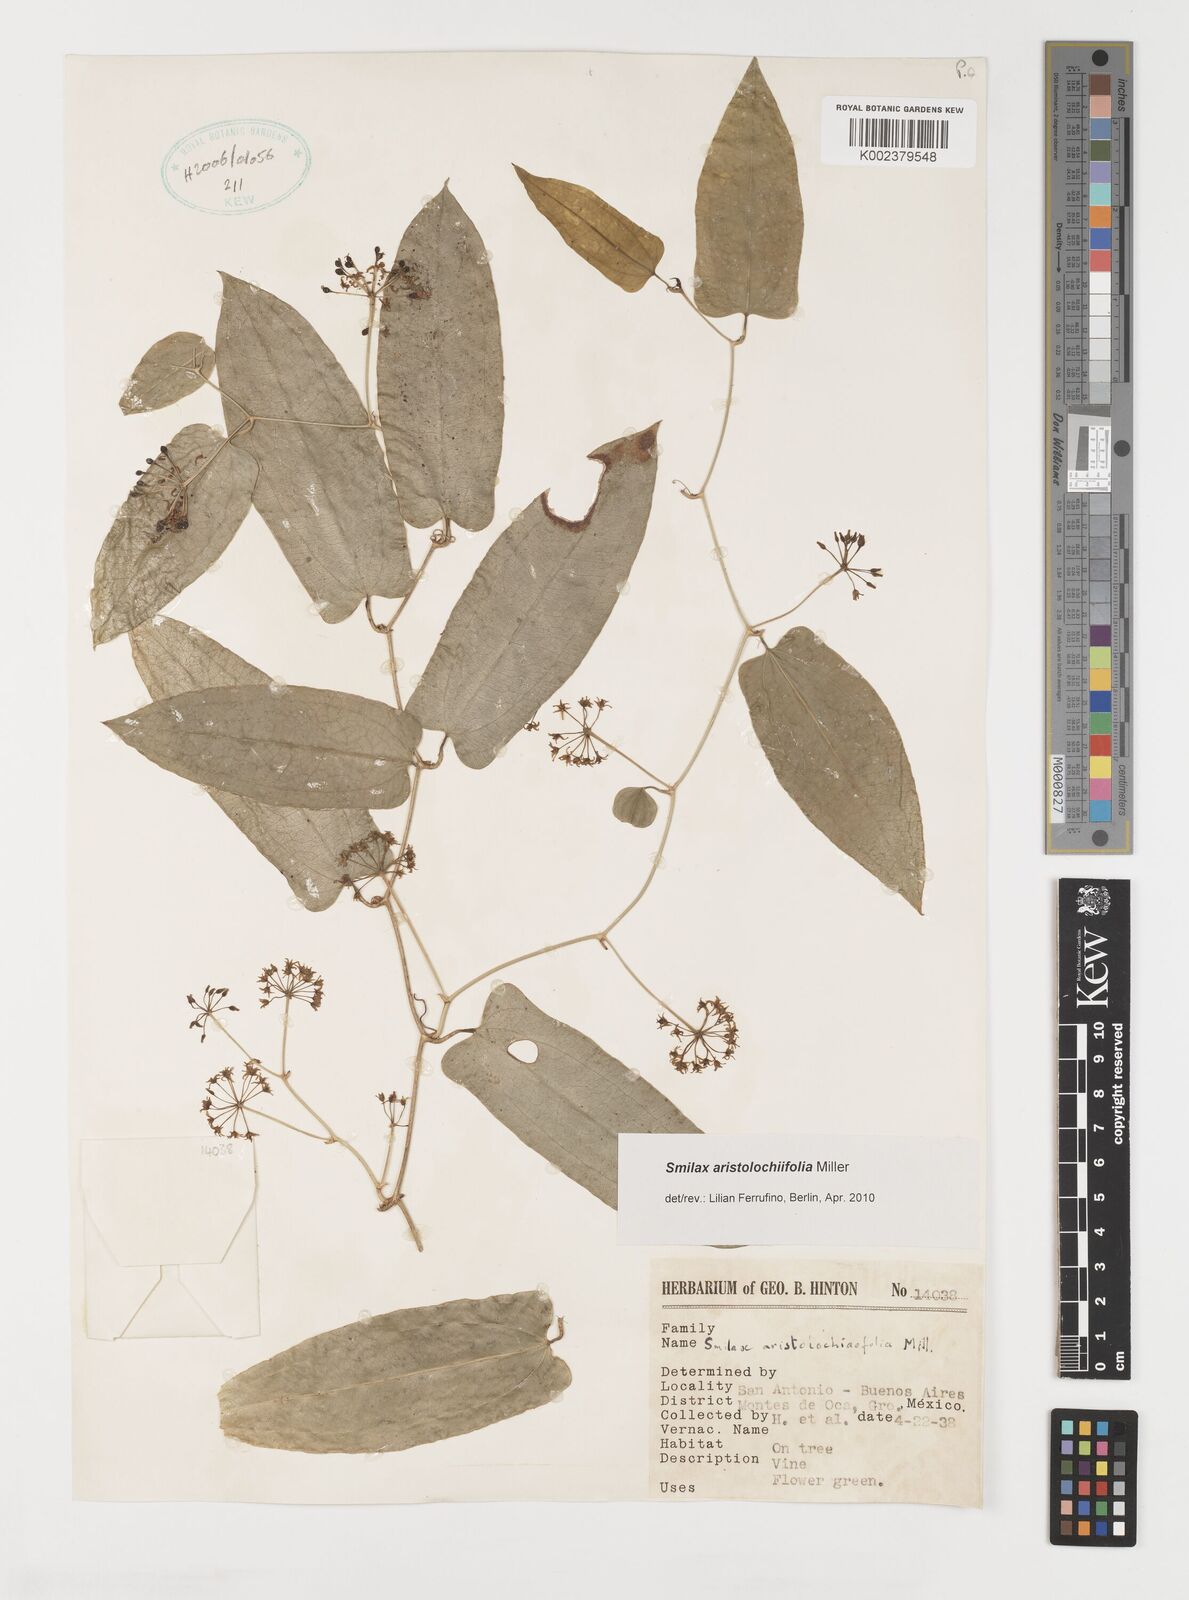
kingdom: Plantae
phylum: Tracheophyta
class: Liliopsida
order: Liliales
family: Smilacaceae
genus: Smilax
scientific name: Smilax aristolochiifolia
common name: Sarsaparilla
